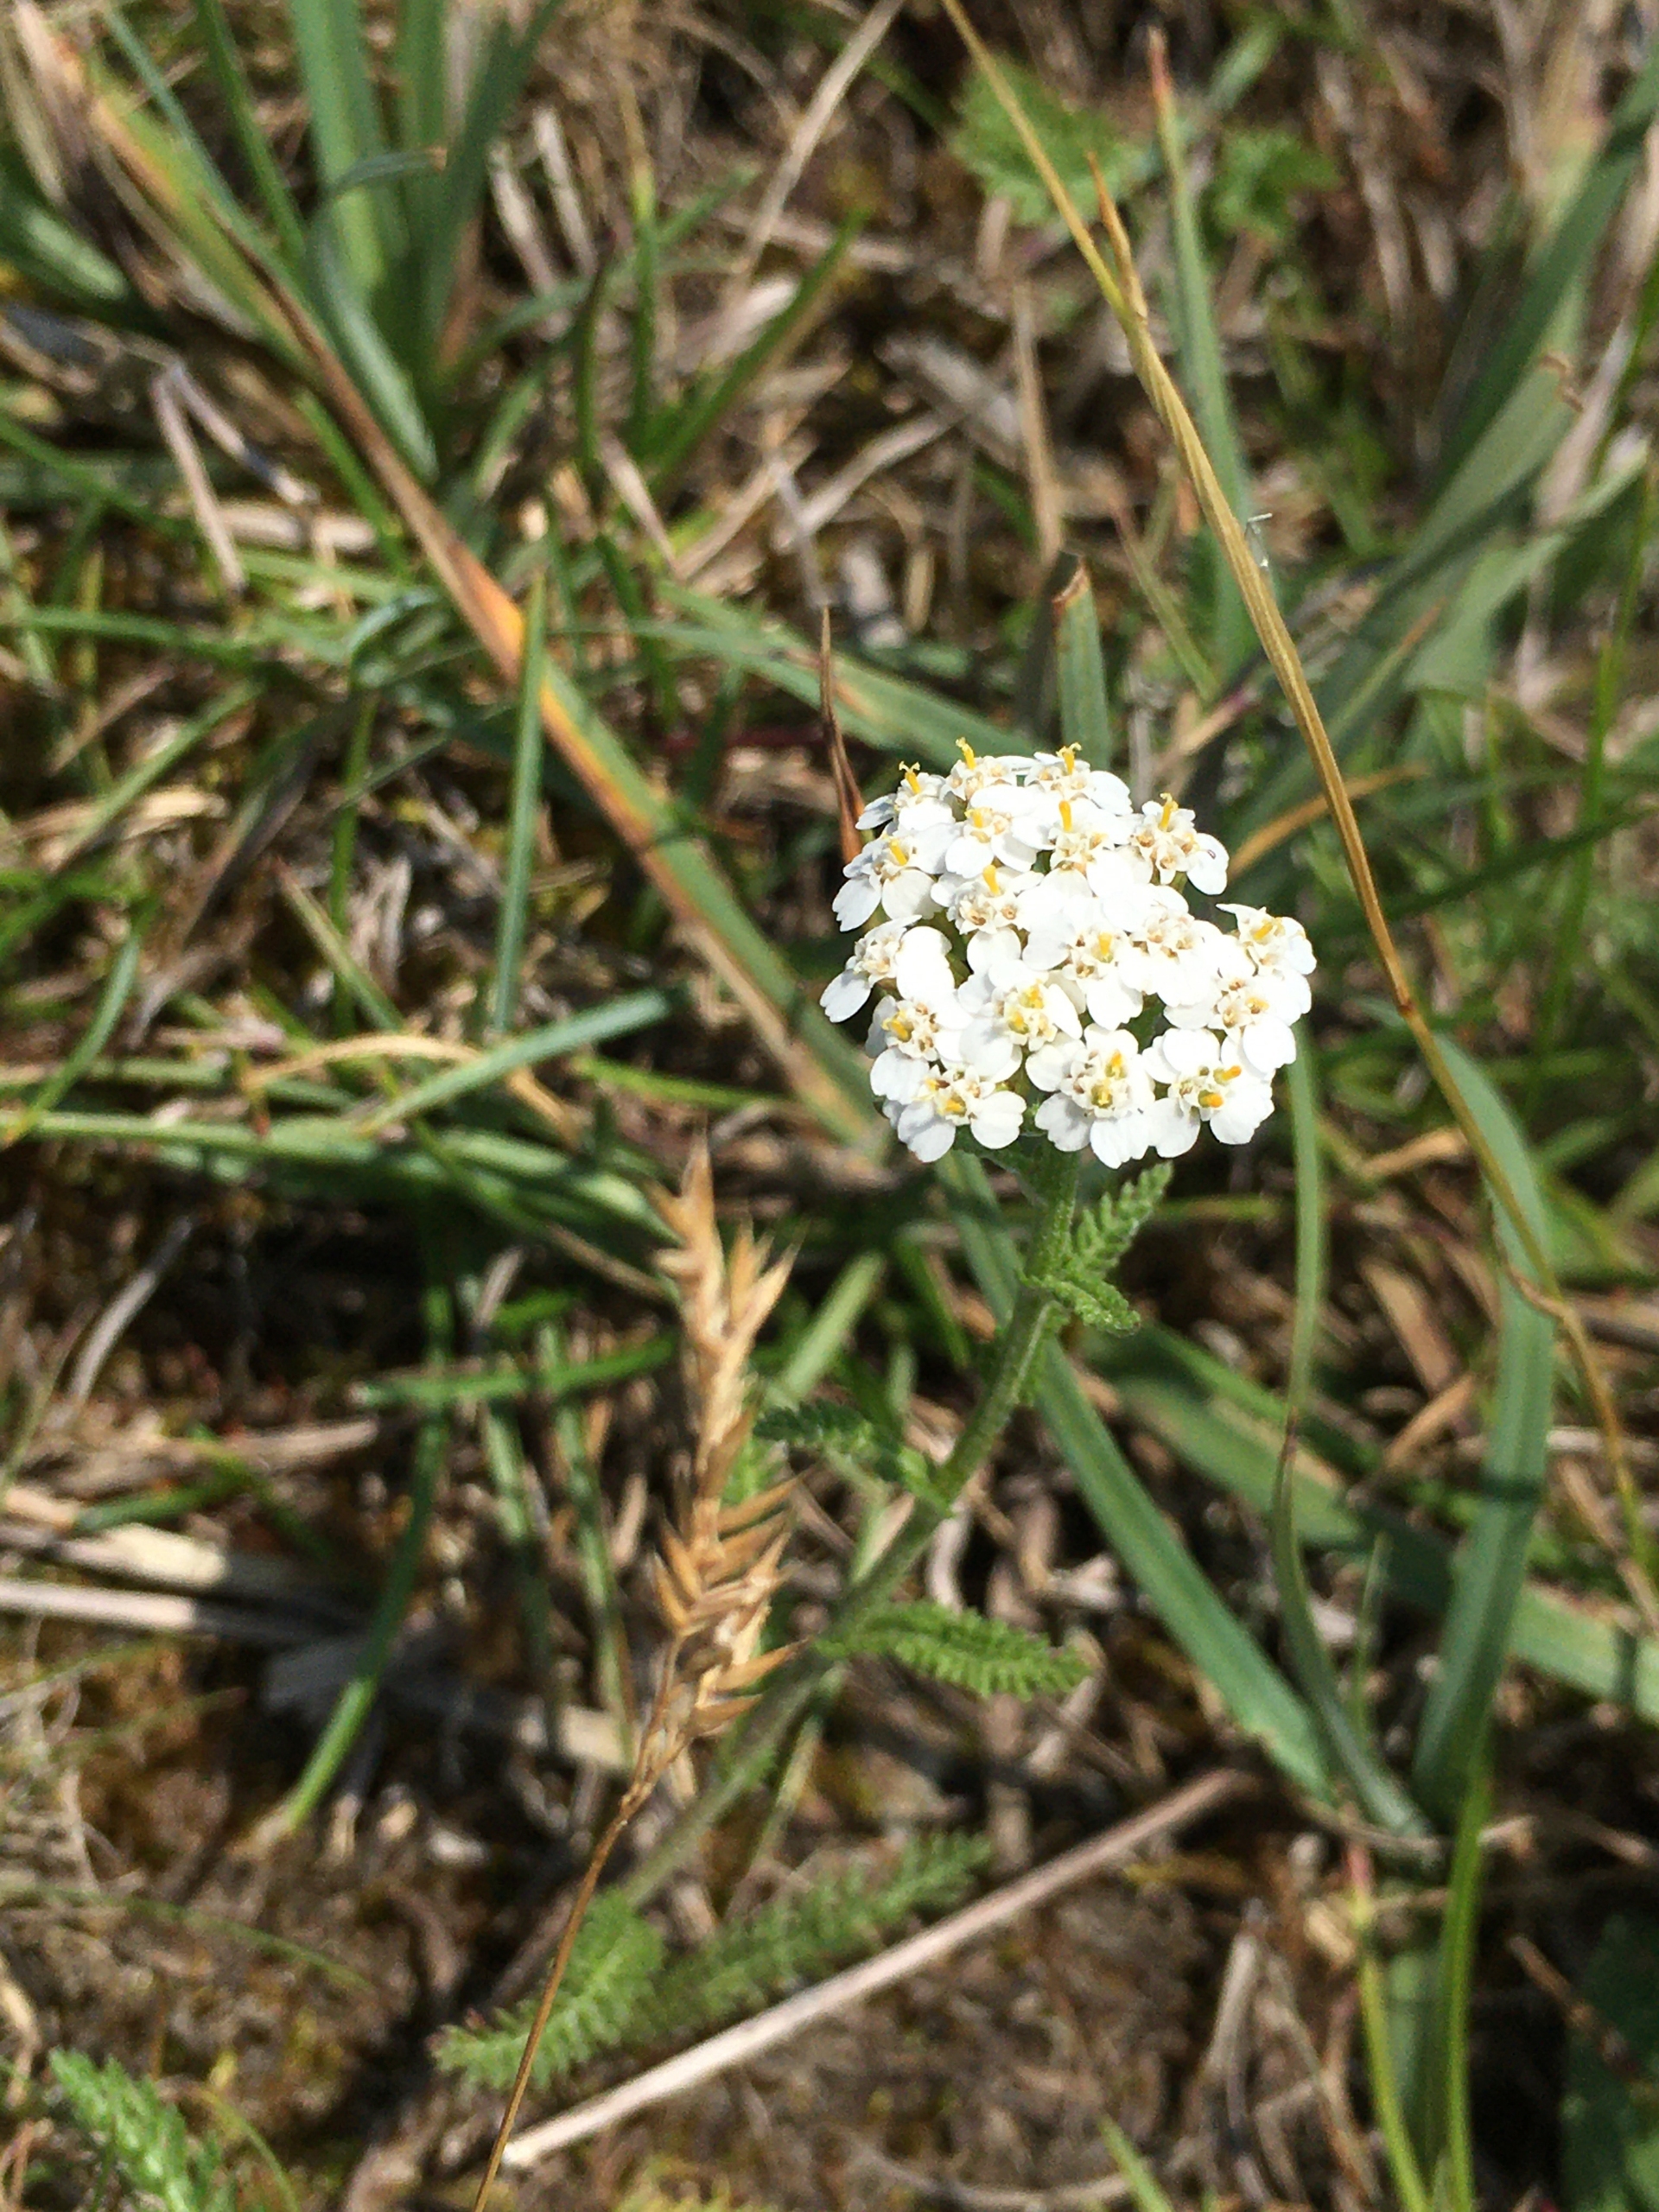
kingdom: Plantae
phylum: Tracheophyta
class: Magnoliopsida
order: Asterales
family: Asteraceae
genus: Achillea
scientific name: Achillea millefolium
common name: Almindelig røllike
